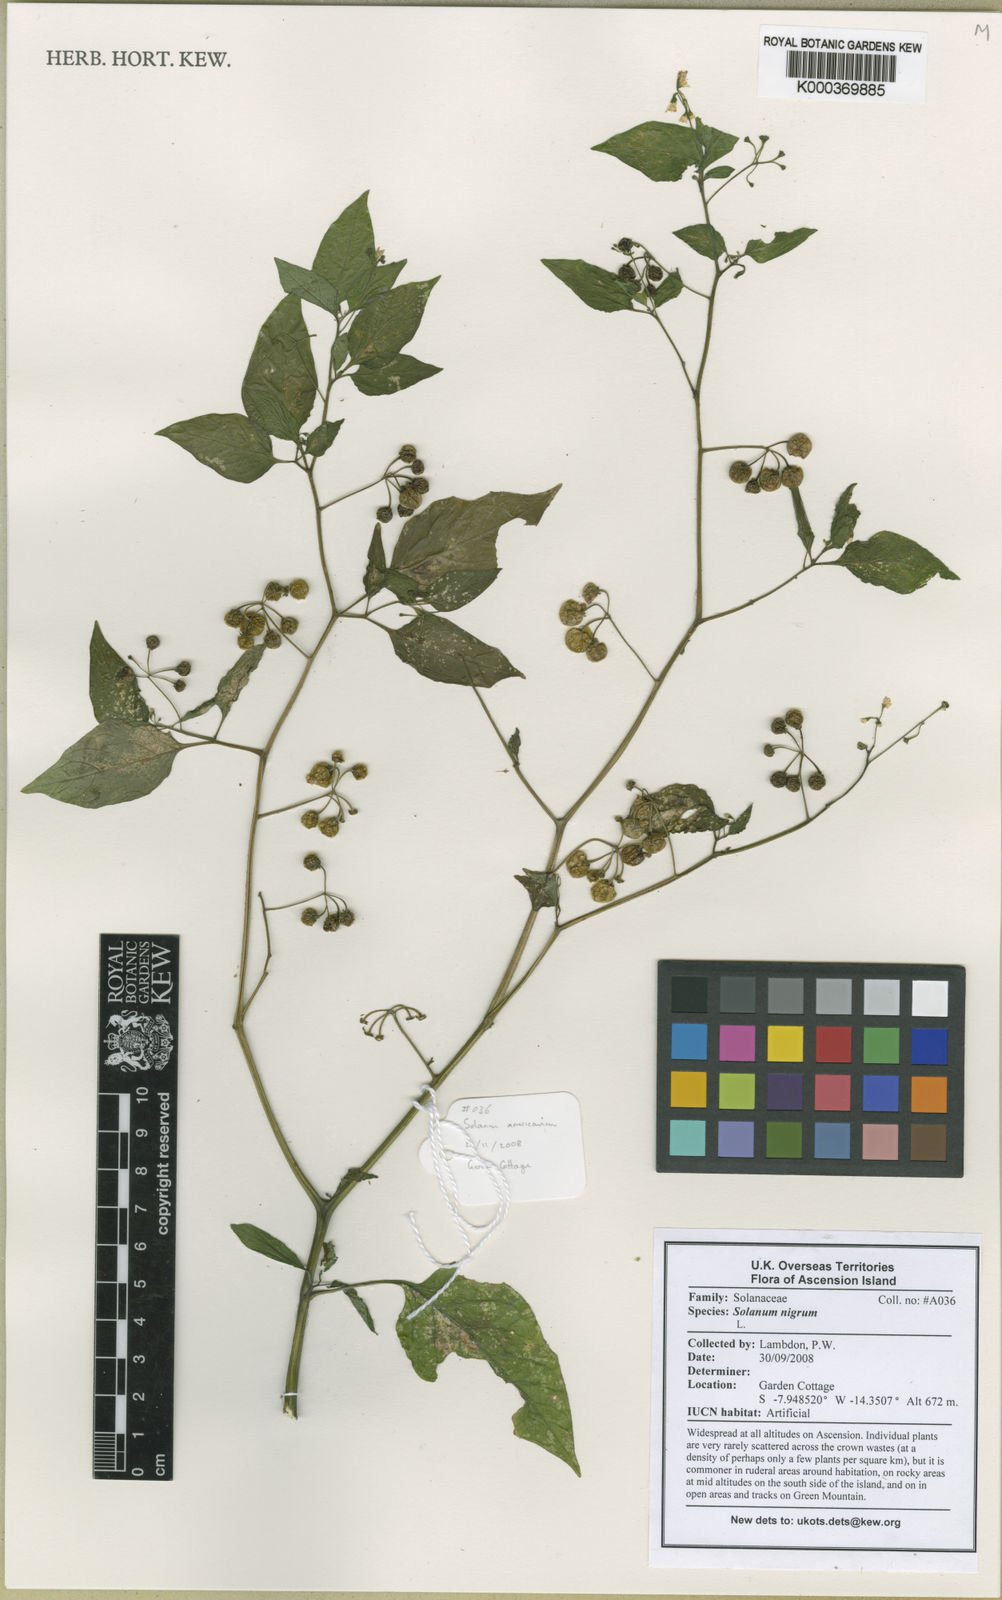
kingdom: Plantae
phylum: Tracheophyta
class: Magnoliopsida
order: Solanales
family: Solanaceae
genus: Solanum
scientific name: Solanum americanum
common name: American black nightshade
